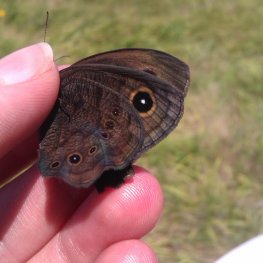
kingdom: Animalia
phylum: Arthropoda
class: Insecta
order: Lepidoptera
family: Nymphalidae
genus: Cercyonis
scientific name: Cercyonis pegala
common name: Common Wood-Nymph
